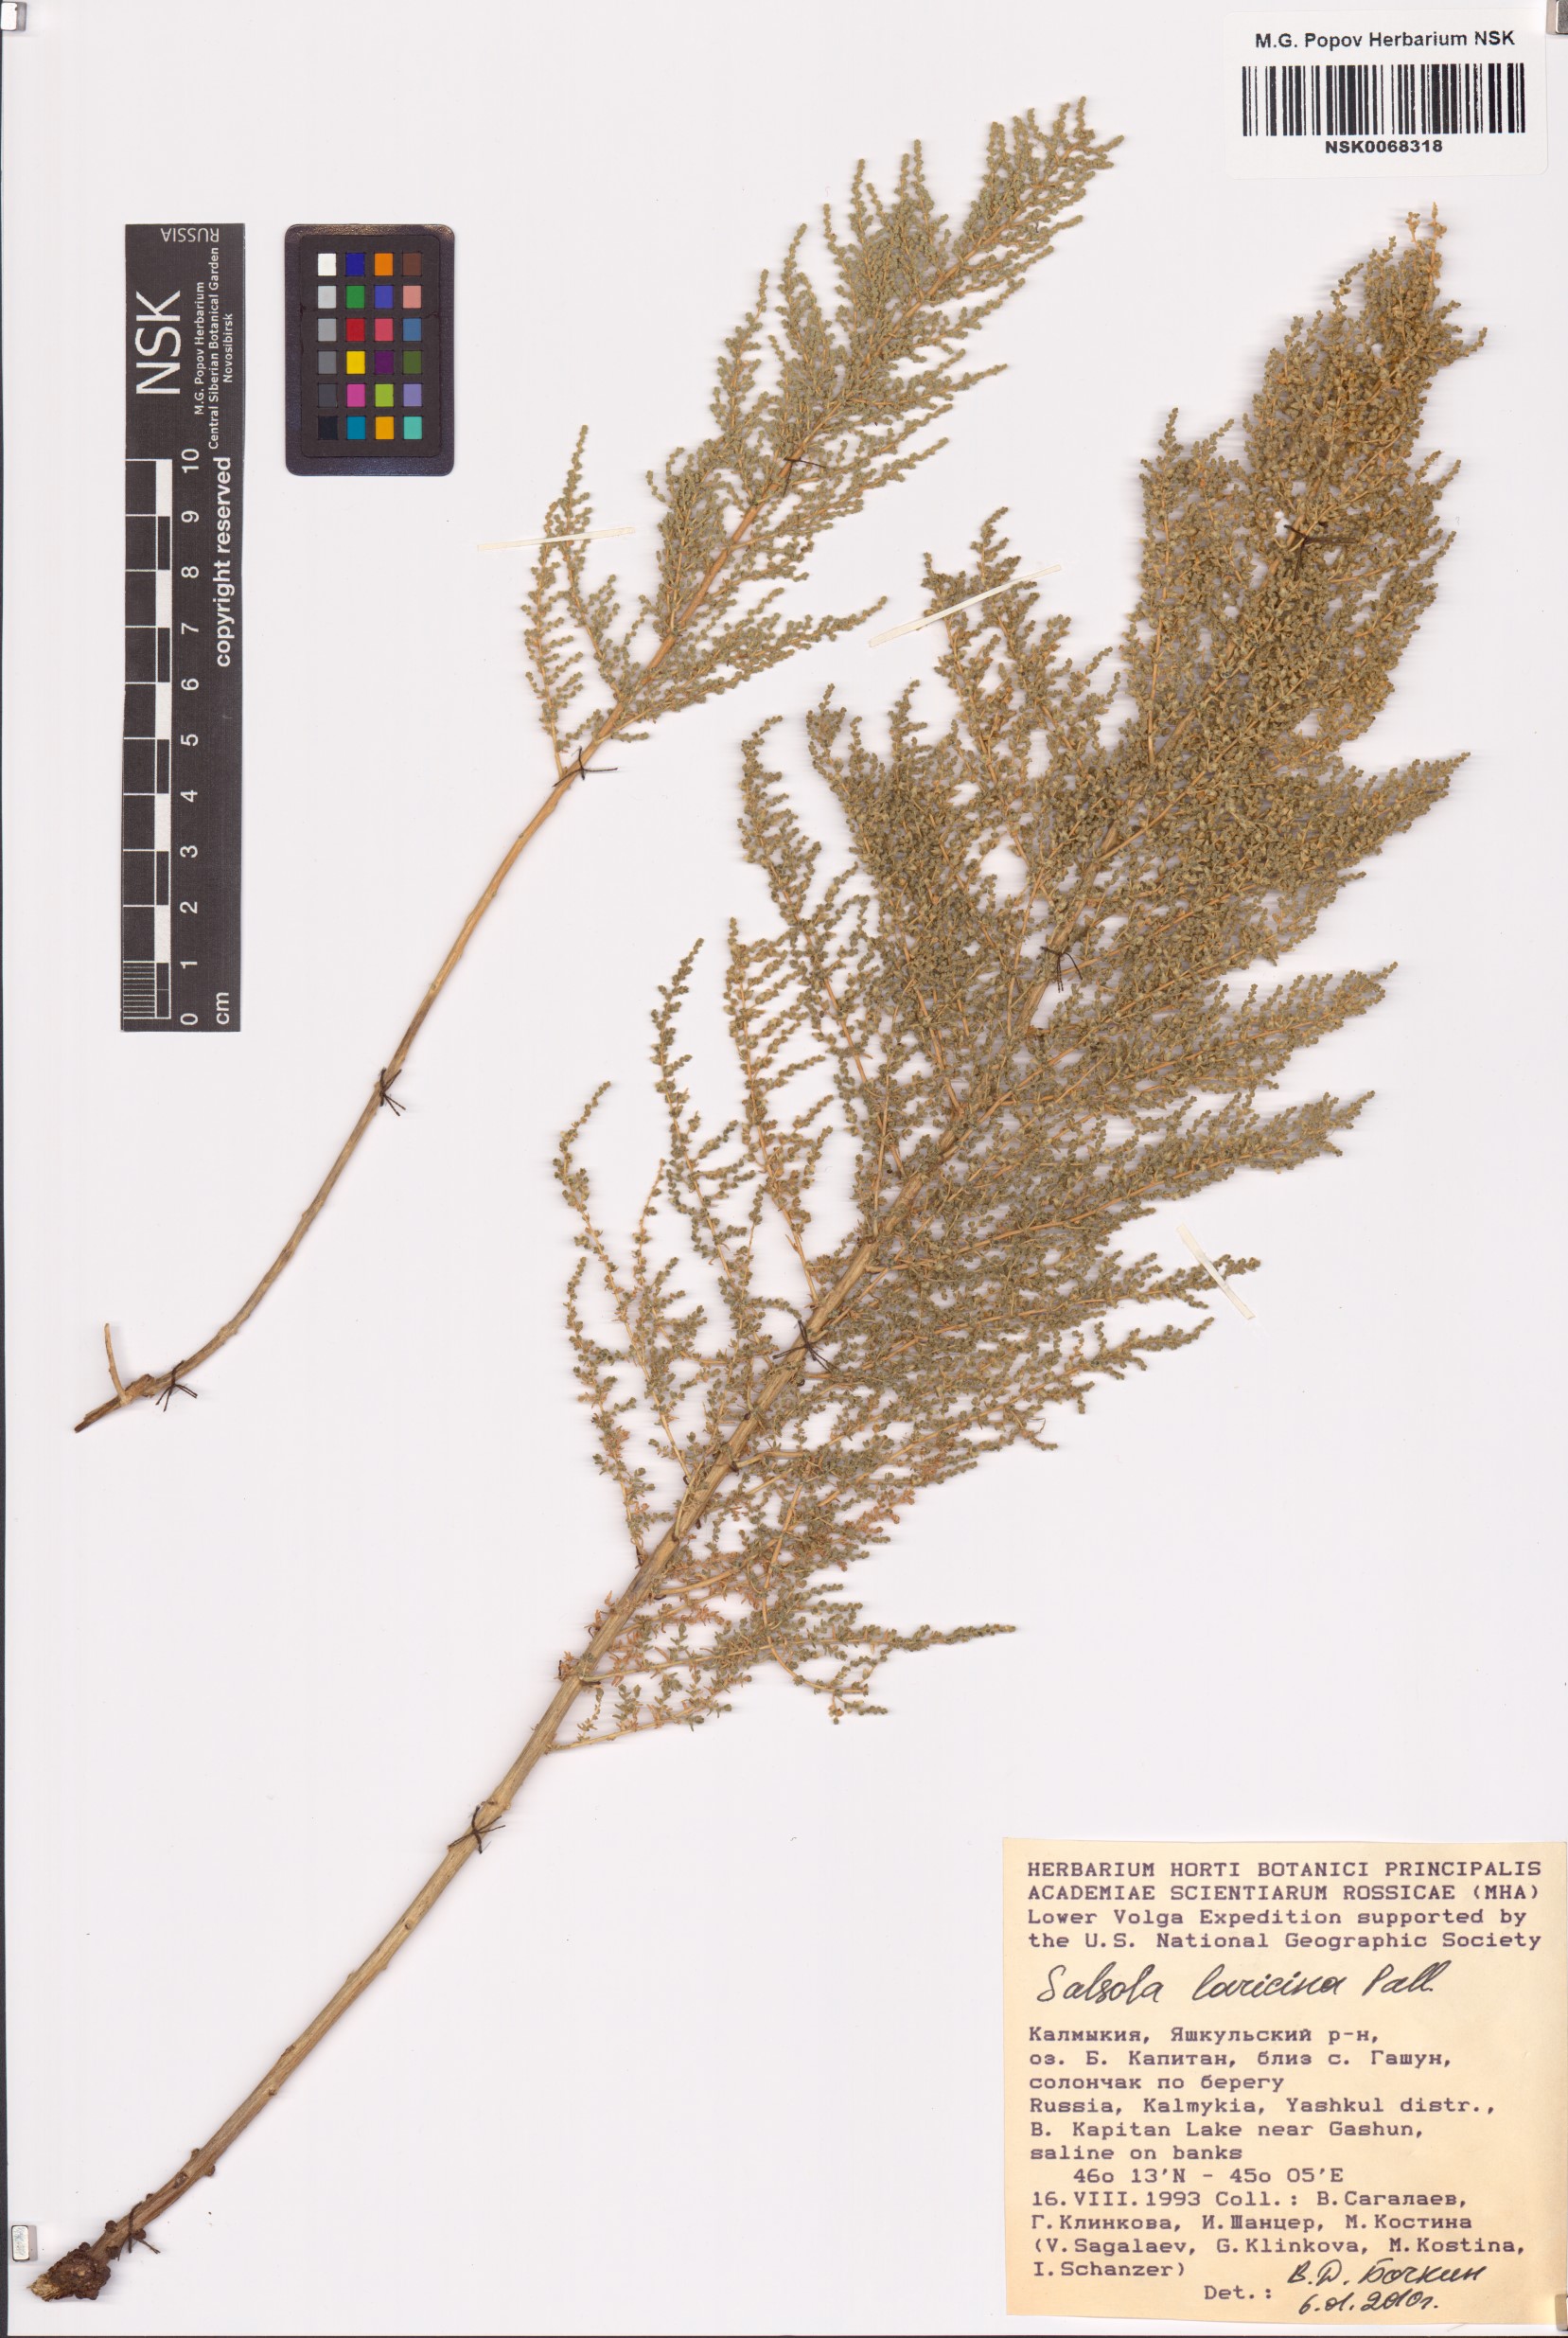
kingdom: Plantae
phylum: Tracheophyta
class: Magnoliopsida
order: Caryophyllales
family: Amaranthaceae
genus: Nitrosalsola
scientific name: Nitrosalsola laricina
